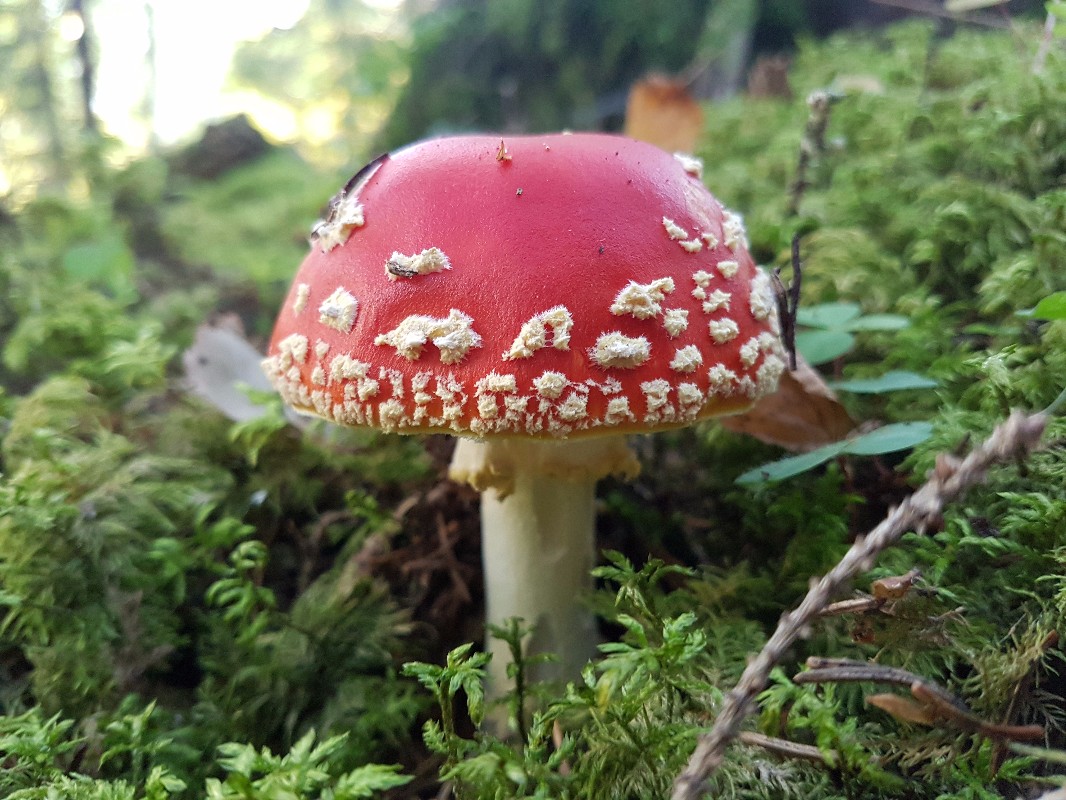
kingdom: Fungi
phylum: Basidiomycota
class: Agaricomycetes
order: Agaricales
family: Amanitaceae
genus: Amanita
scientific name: Amanita muscaria
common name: rød fluesvamp
